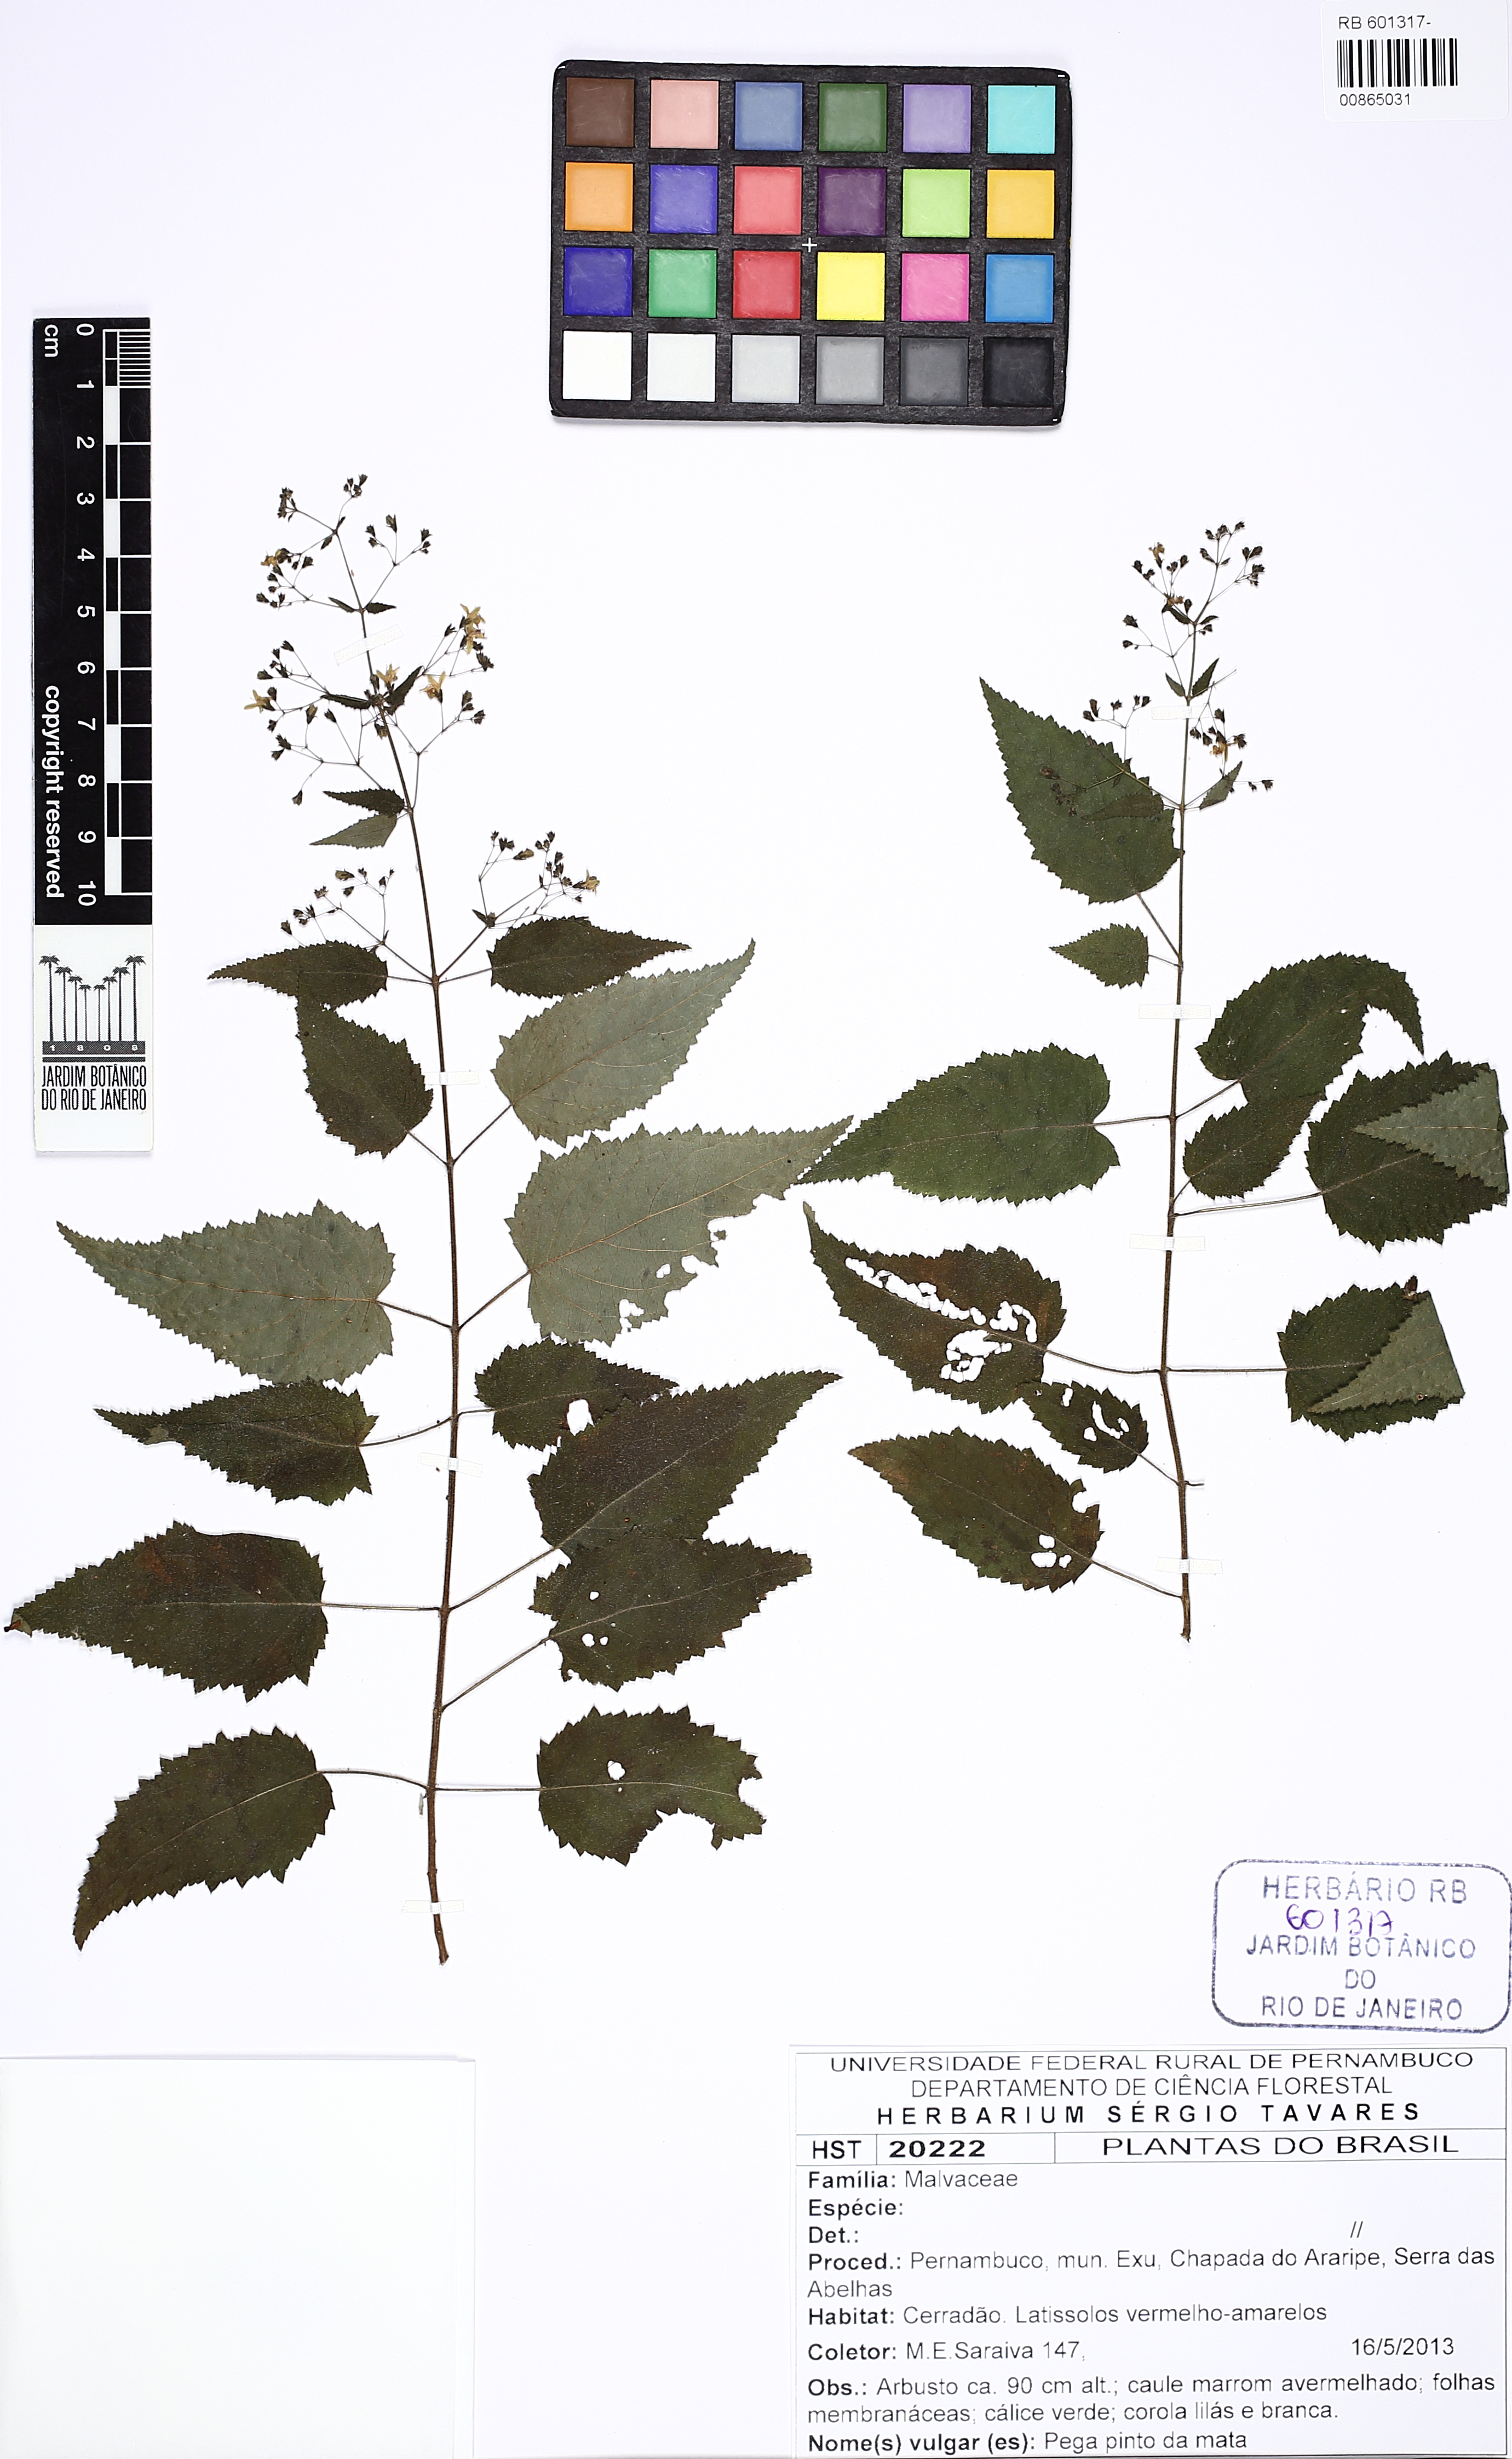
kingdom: Plantae
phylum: Tracheophyta
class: Magnoliopsida
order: Malvales
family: Malvaceae
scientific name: Malvaceae
